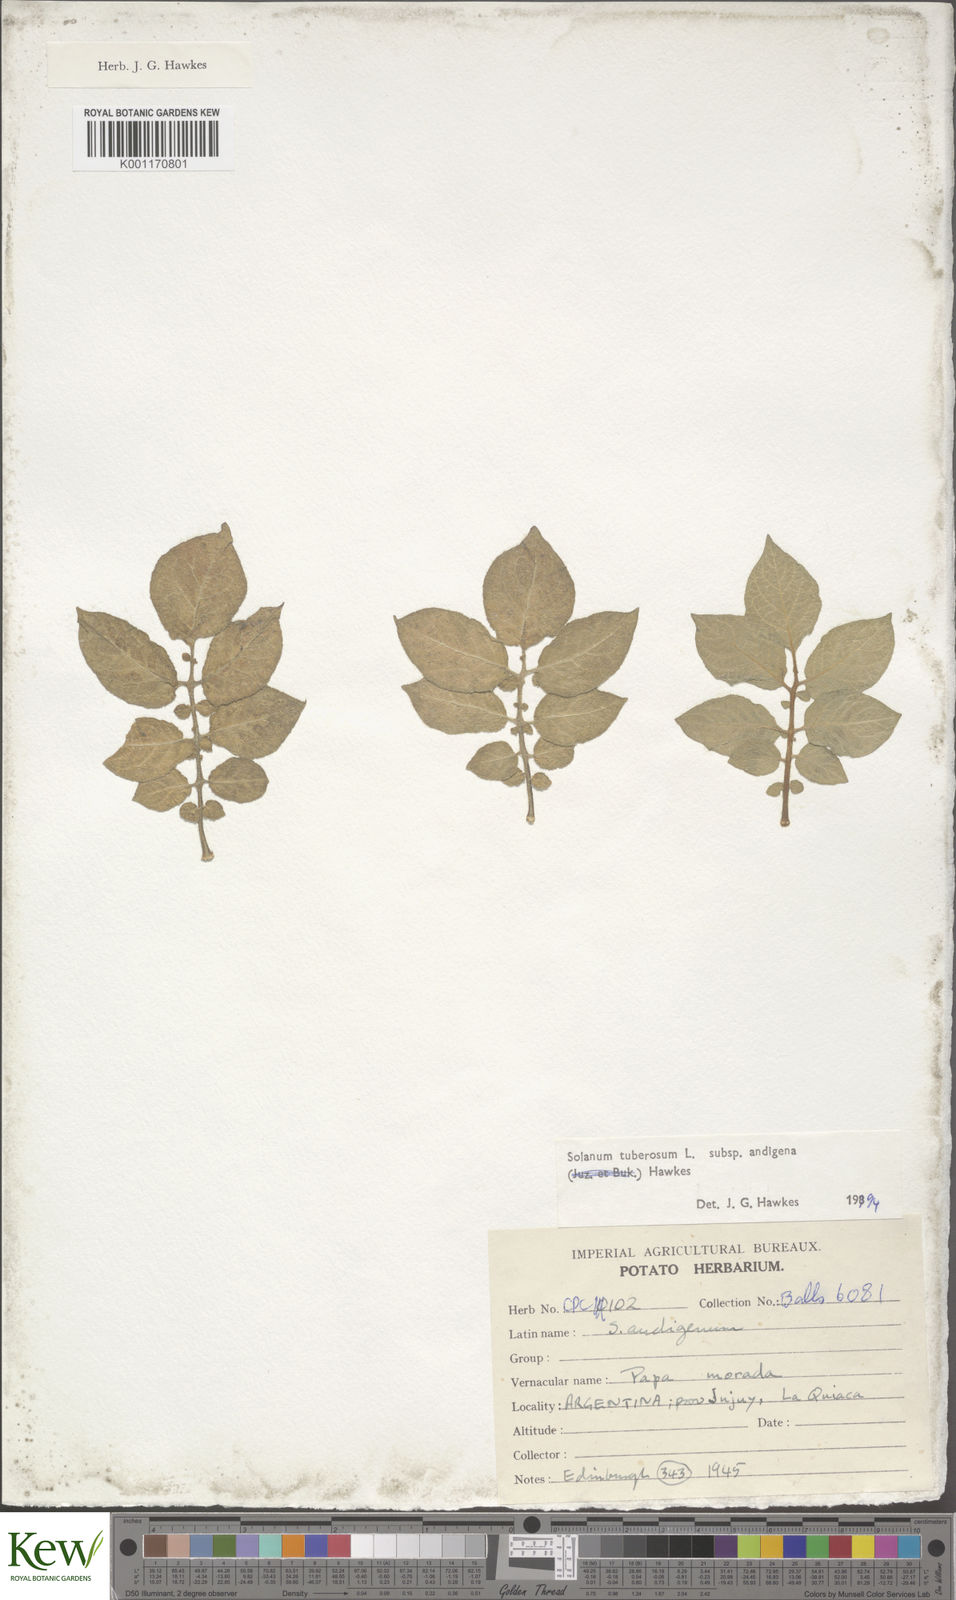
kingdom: Plantae
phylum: Tracheophyta
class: Magnoliopsida
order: Solanales
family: Solanaceae
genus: Solanum
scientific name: Solanum tuberosum
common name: Potato
